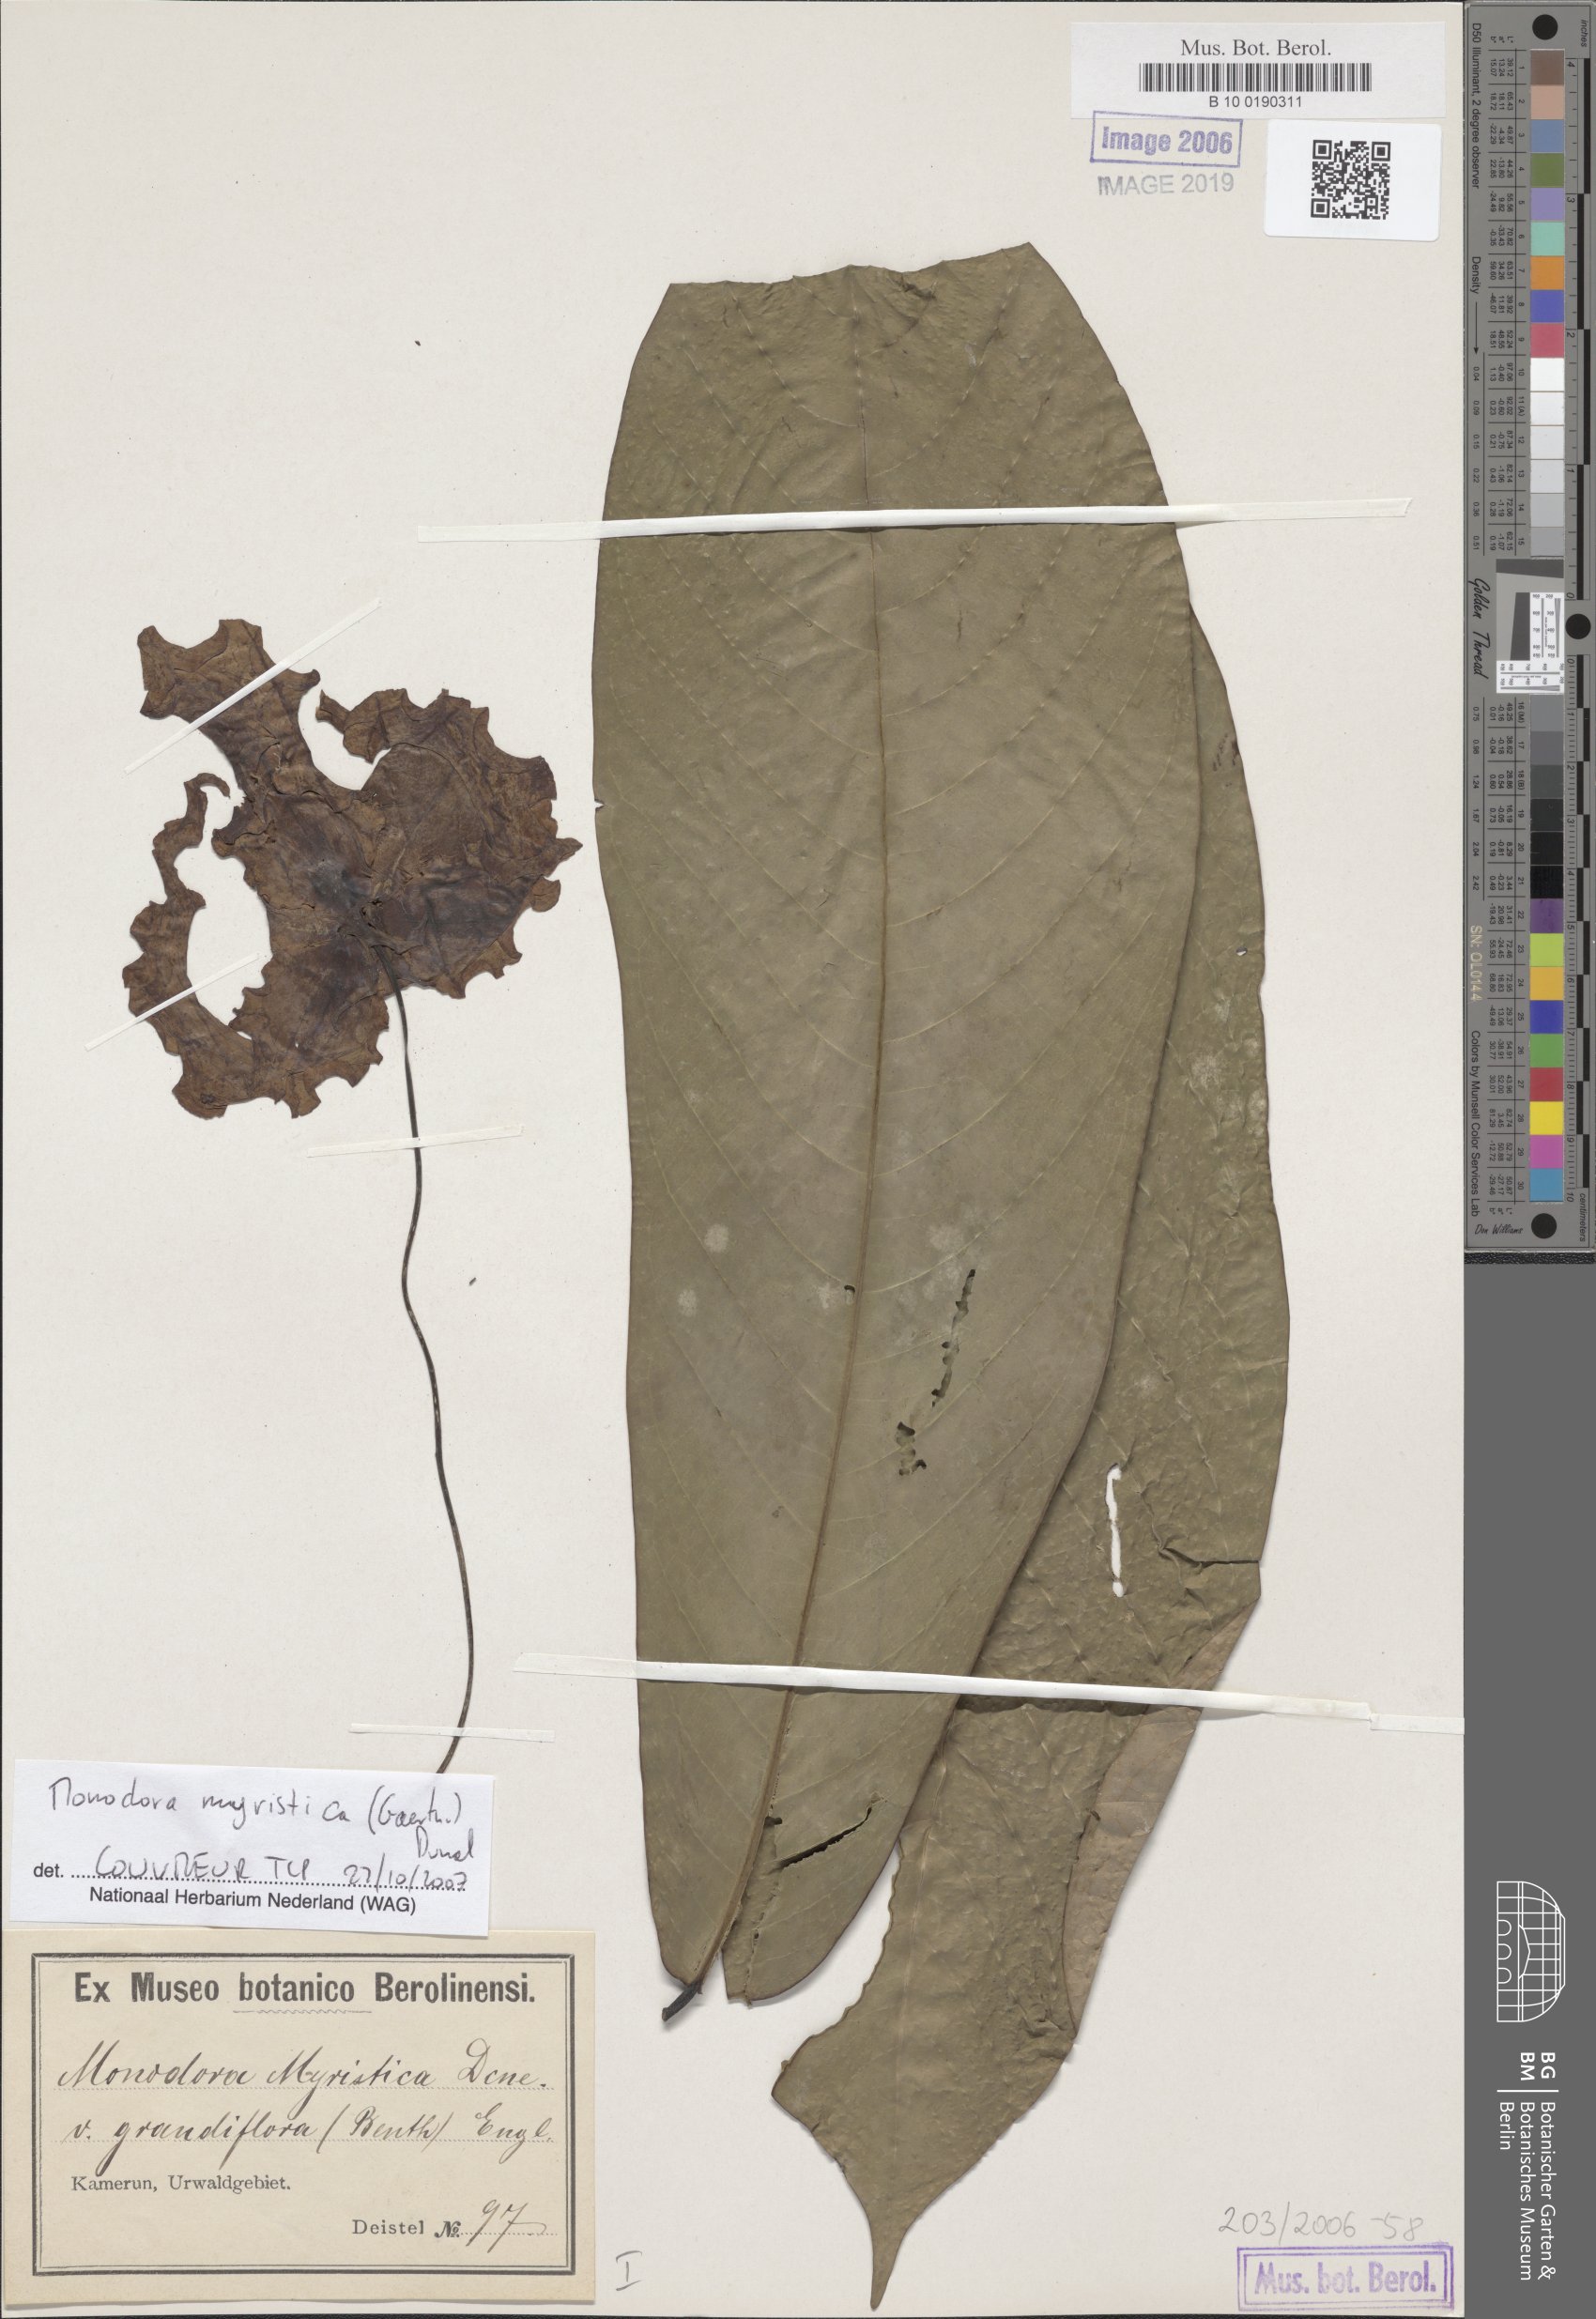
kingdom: Plantae
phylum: Tracheophyta
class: Magnoliopsida
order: Magnoliales
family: Annonaceae
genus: Monodora
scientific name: Monodora myristica
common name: African nutmeg
